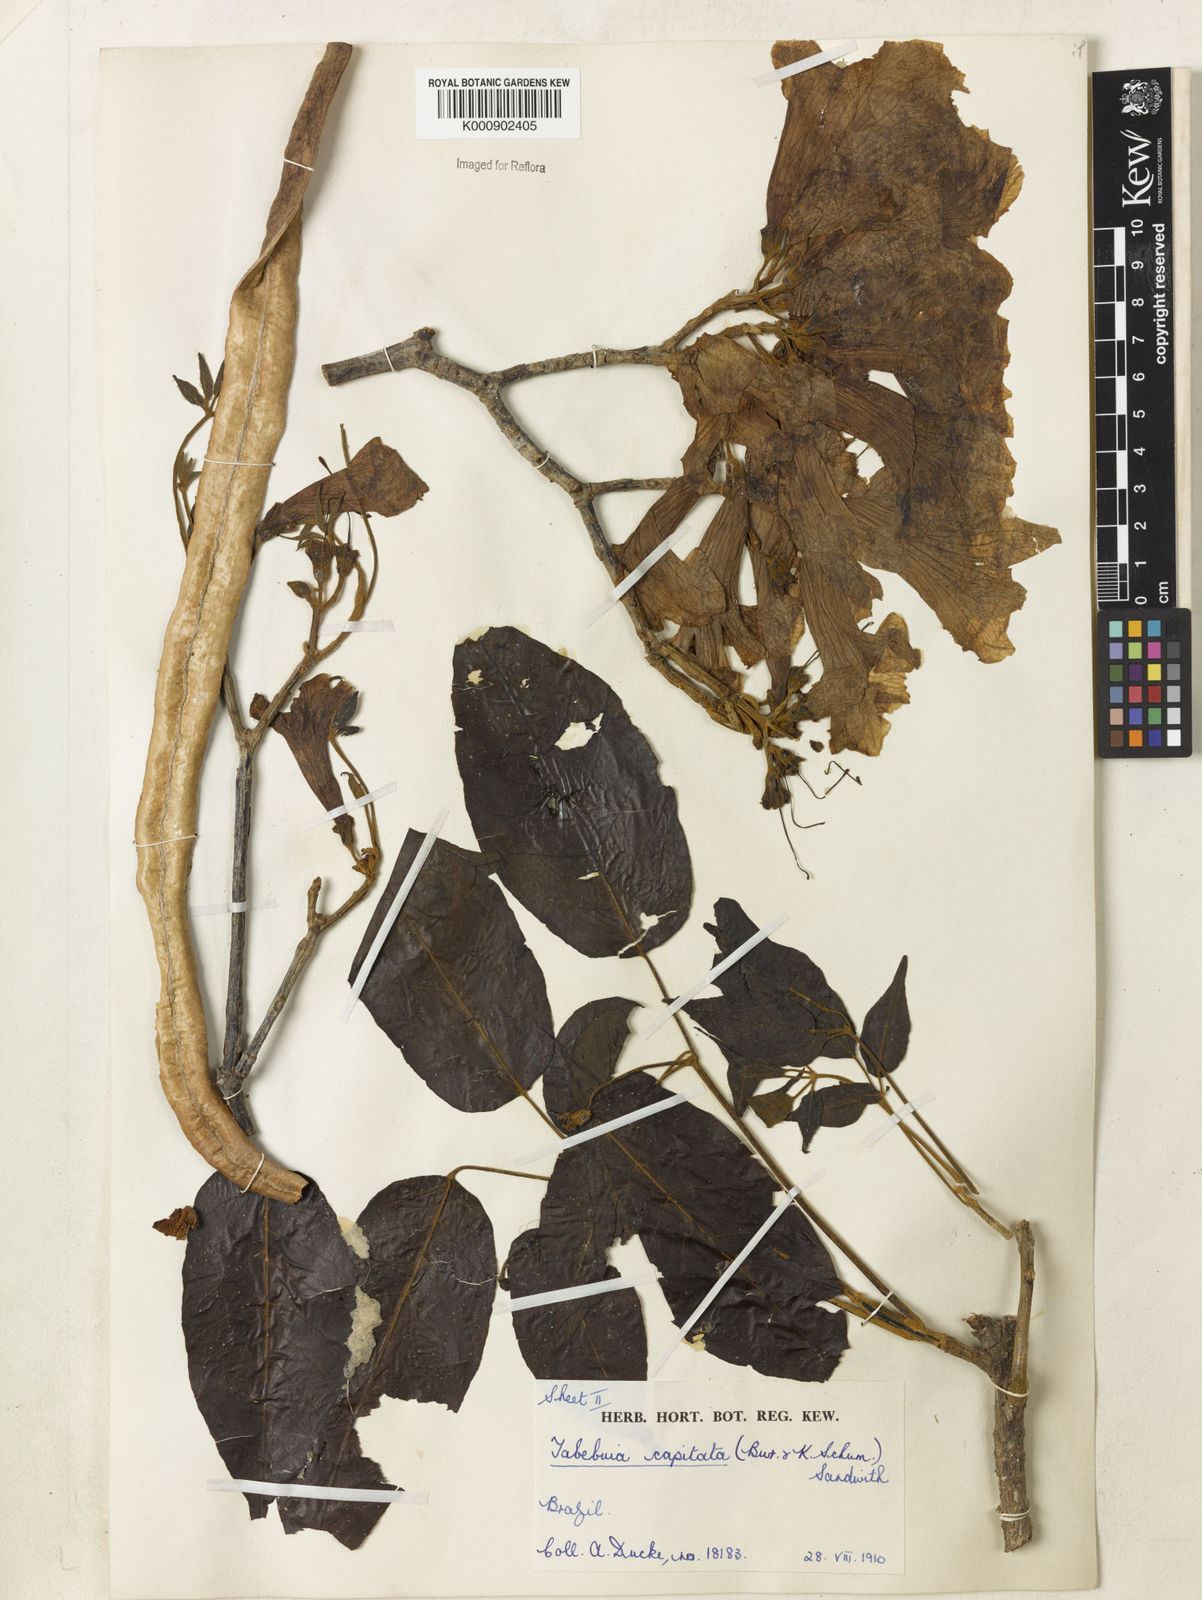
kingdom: Plantae
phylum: Tracheophyta
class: Magnoliopsida
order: Lamiales
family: Bignoniaceae
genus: Handroanthus
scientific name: Handroanthus capitatus
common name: Trumpet trees
